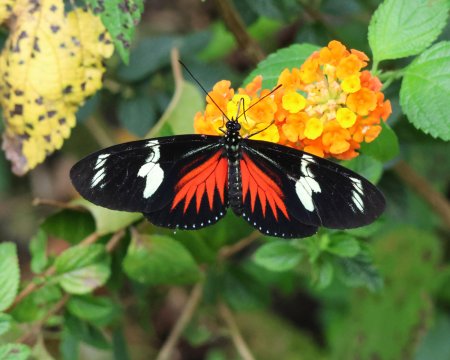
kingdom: Animalia
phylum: Arthropoda
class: Insecta
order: Lepidoptera
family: Nymphalidae
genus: Heliconius
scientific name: Heliconius doris
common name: Doris Longwing
